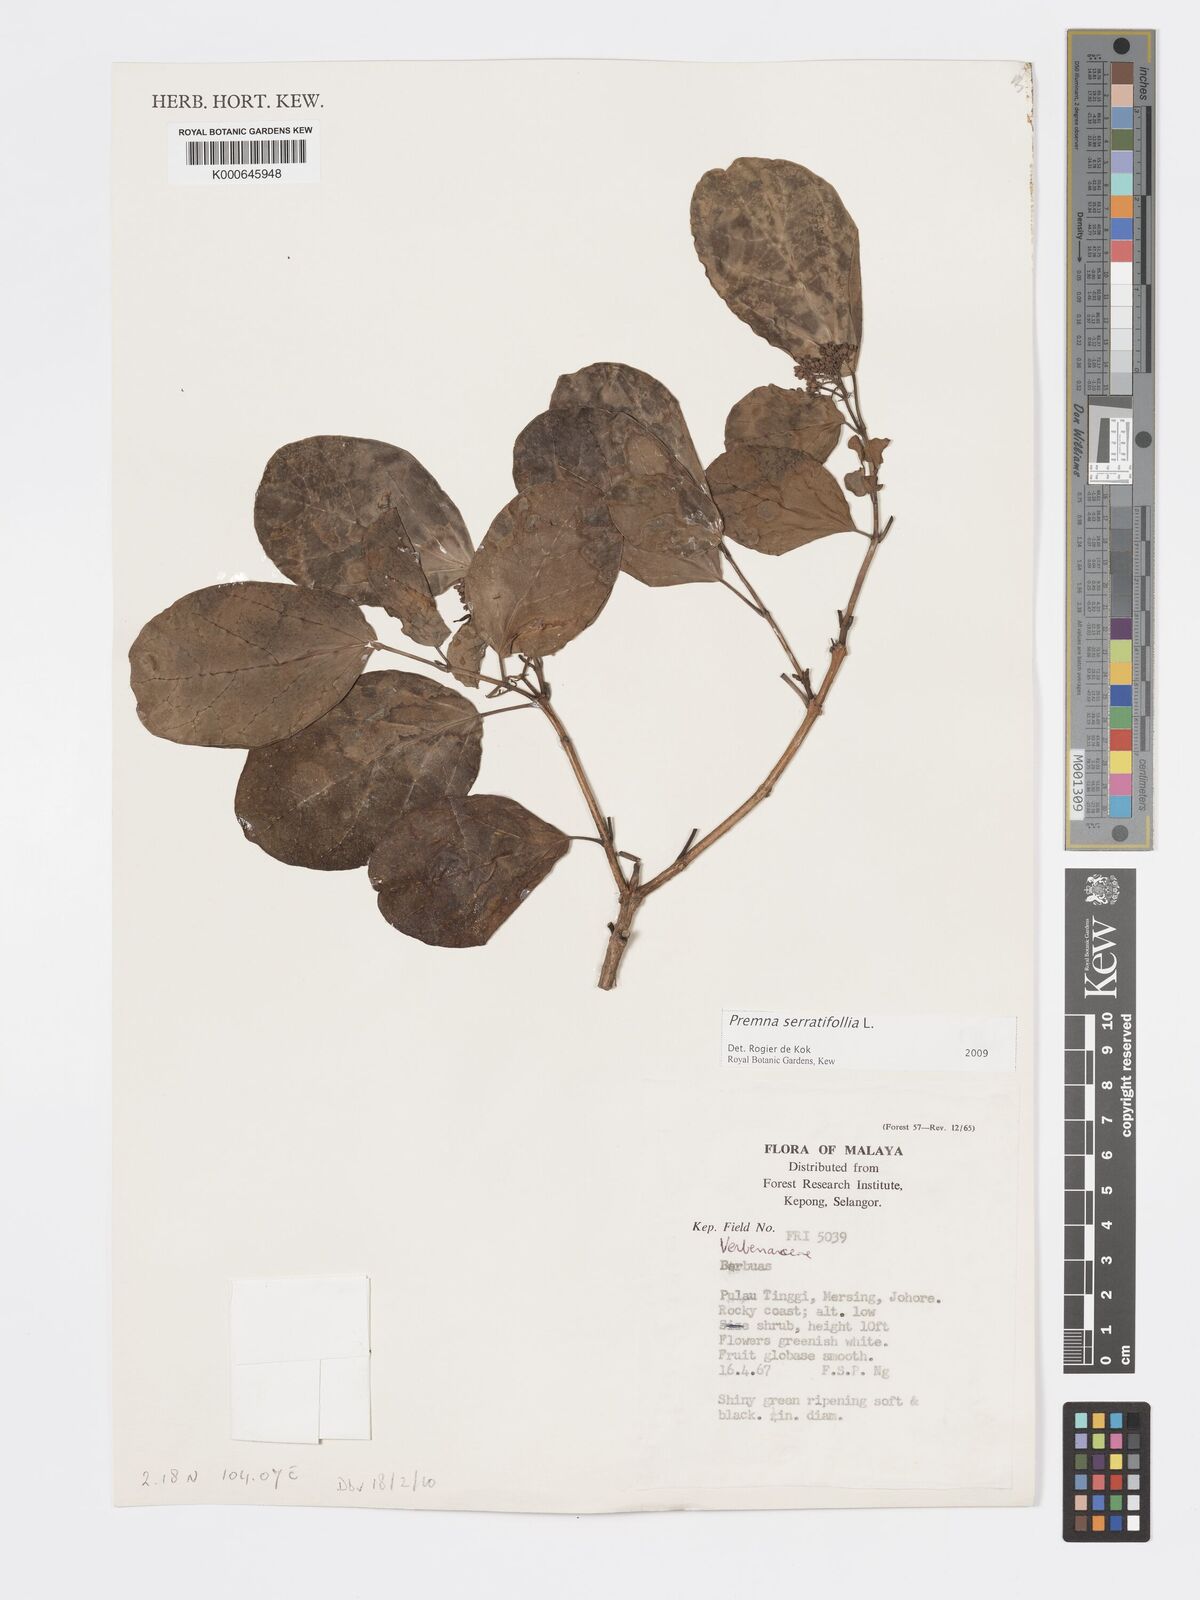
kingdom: Plantae
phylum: Tracheophyta
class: Magnoliopsida
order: Lamiales
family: Lamiaceae
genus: Premna
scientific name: Premna serratifolia
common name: Bastard guelder
